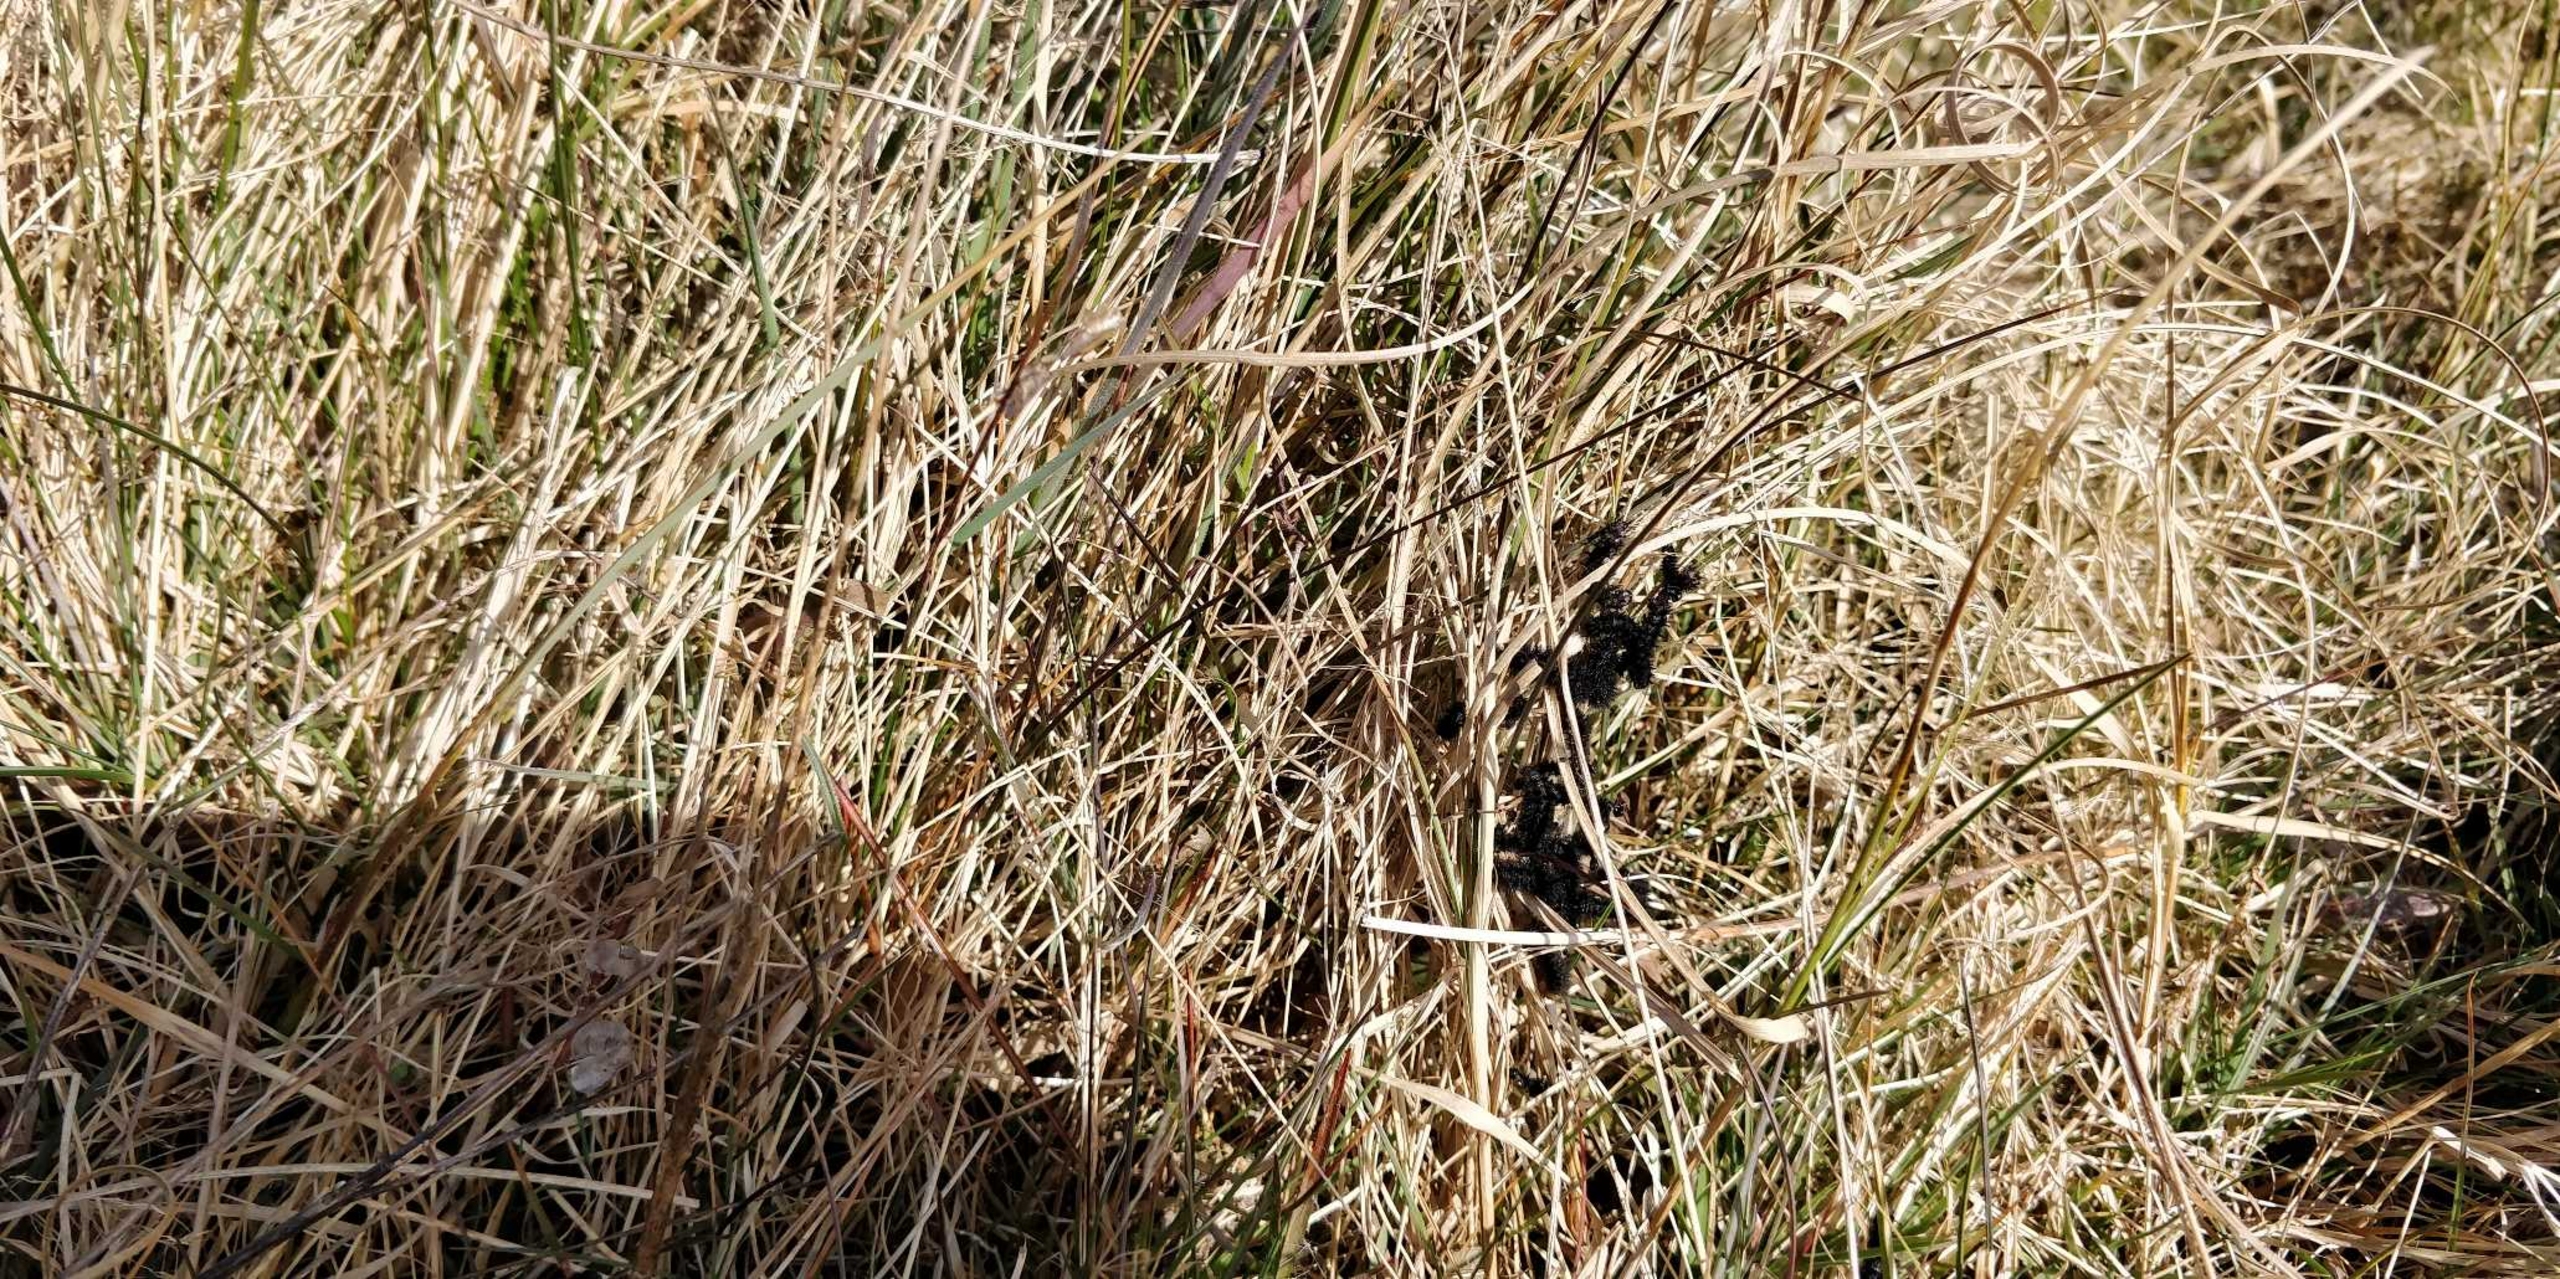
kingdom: Animalia
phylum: Arthropoda
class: Insecta
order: Lepidoptera
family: Nymphalidae
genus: Euphydryas
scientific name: Euphydryas aurinia
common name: Hedepletvinge
